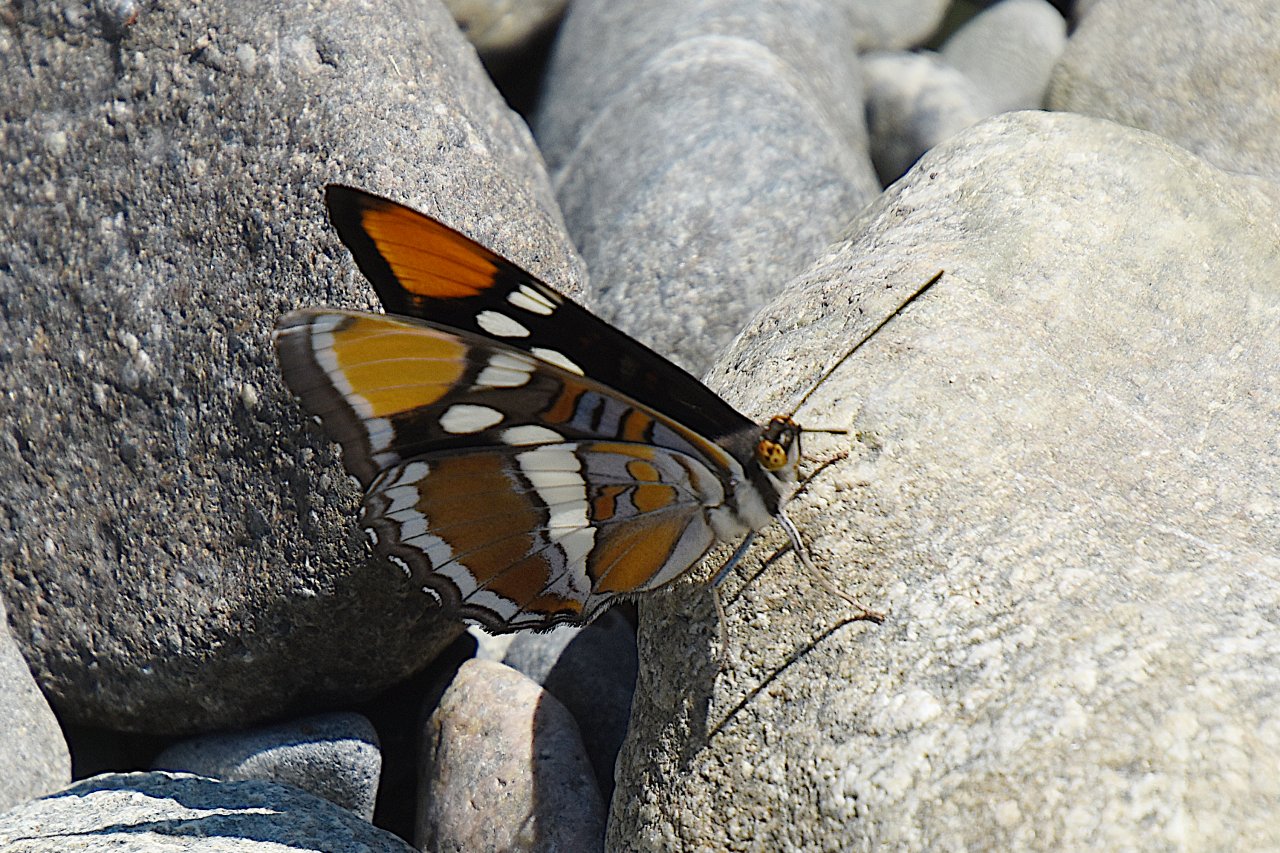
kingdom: Animalia
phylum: Arthropoda
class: Insecta
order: Lepidoptera
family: Nymphalidae
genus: Limenitis
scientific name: Limenitis bredowii
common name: California Sister
